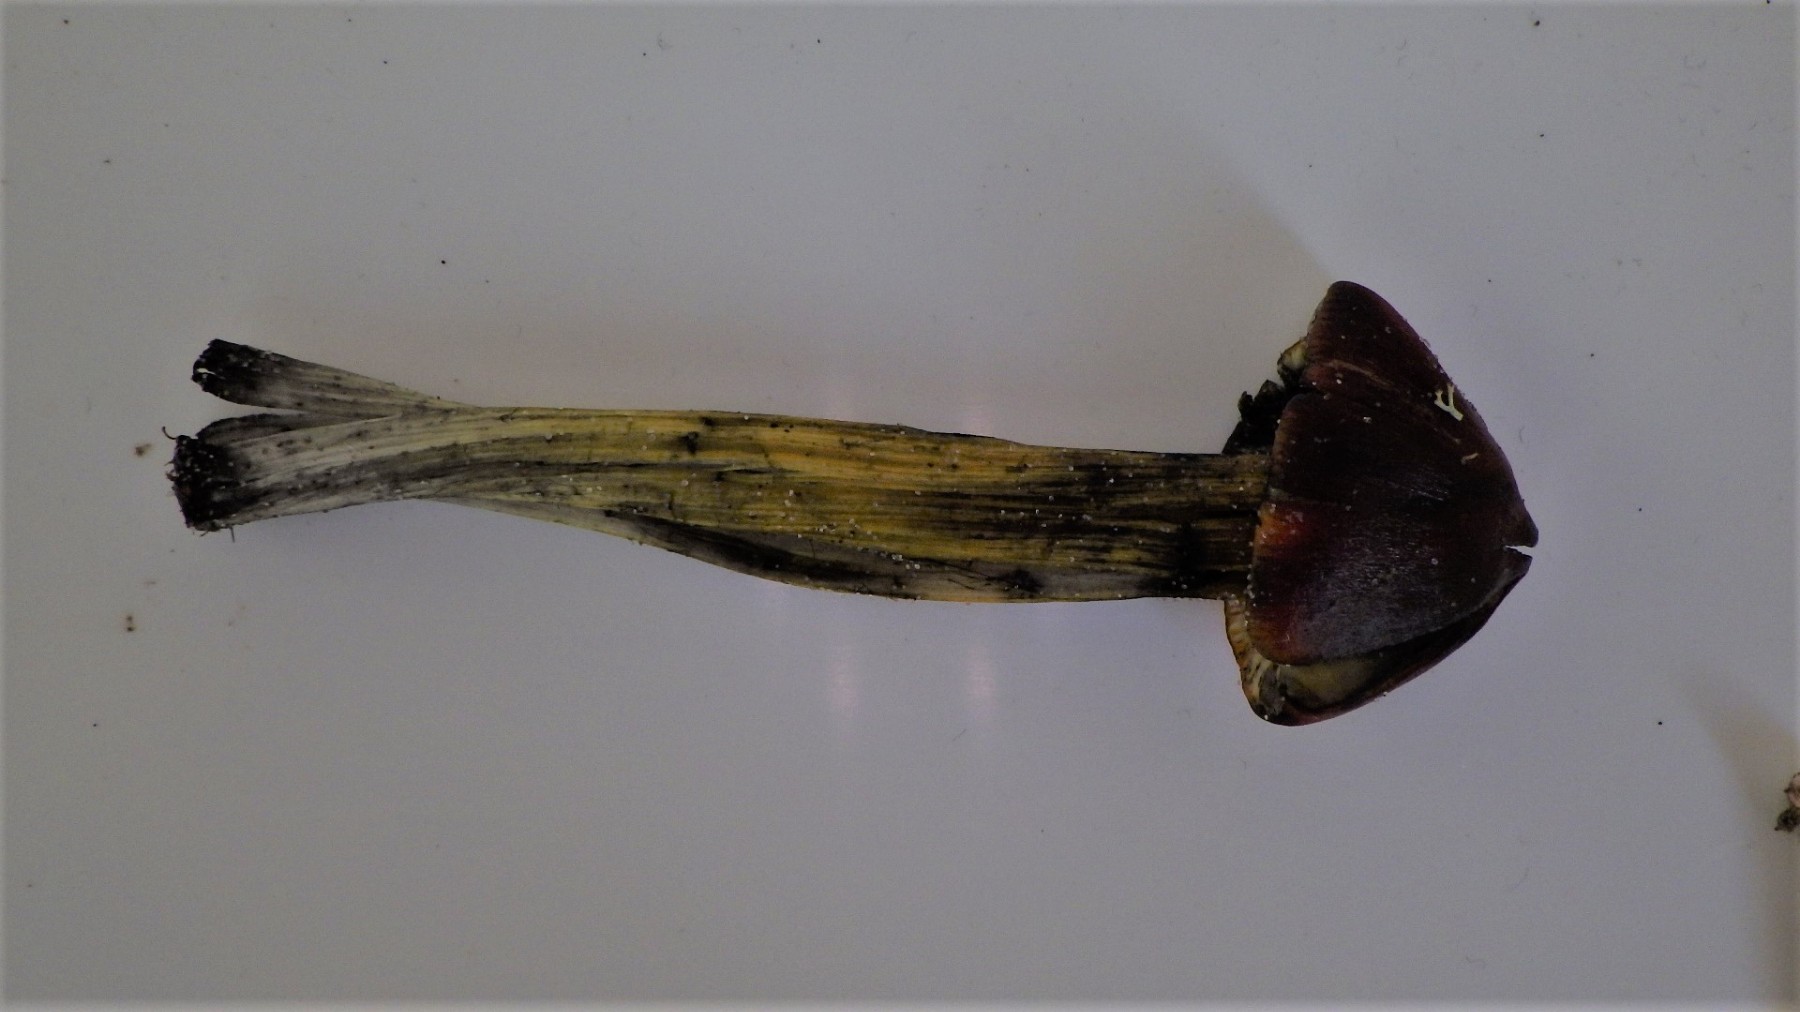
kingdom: Fungi
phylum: Basidiomycota
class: Agaricomycetes
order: Agaricales
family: Hygrophoraceae
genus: Hygrocybe
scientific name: Hygrocybe conica
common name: kegle-vokshat
